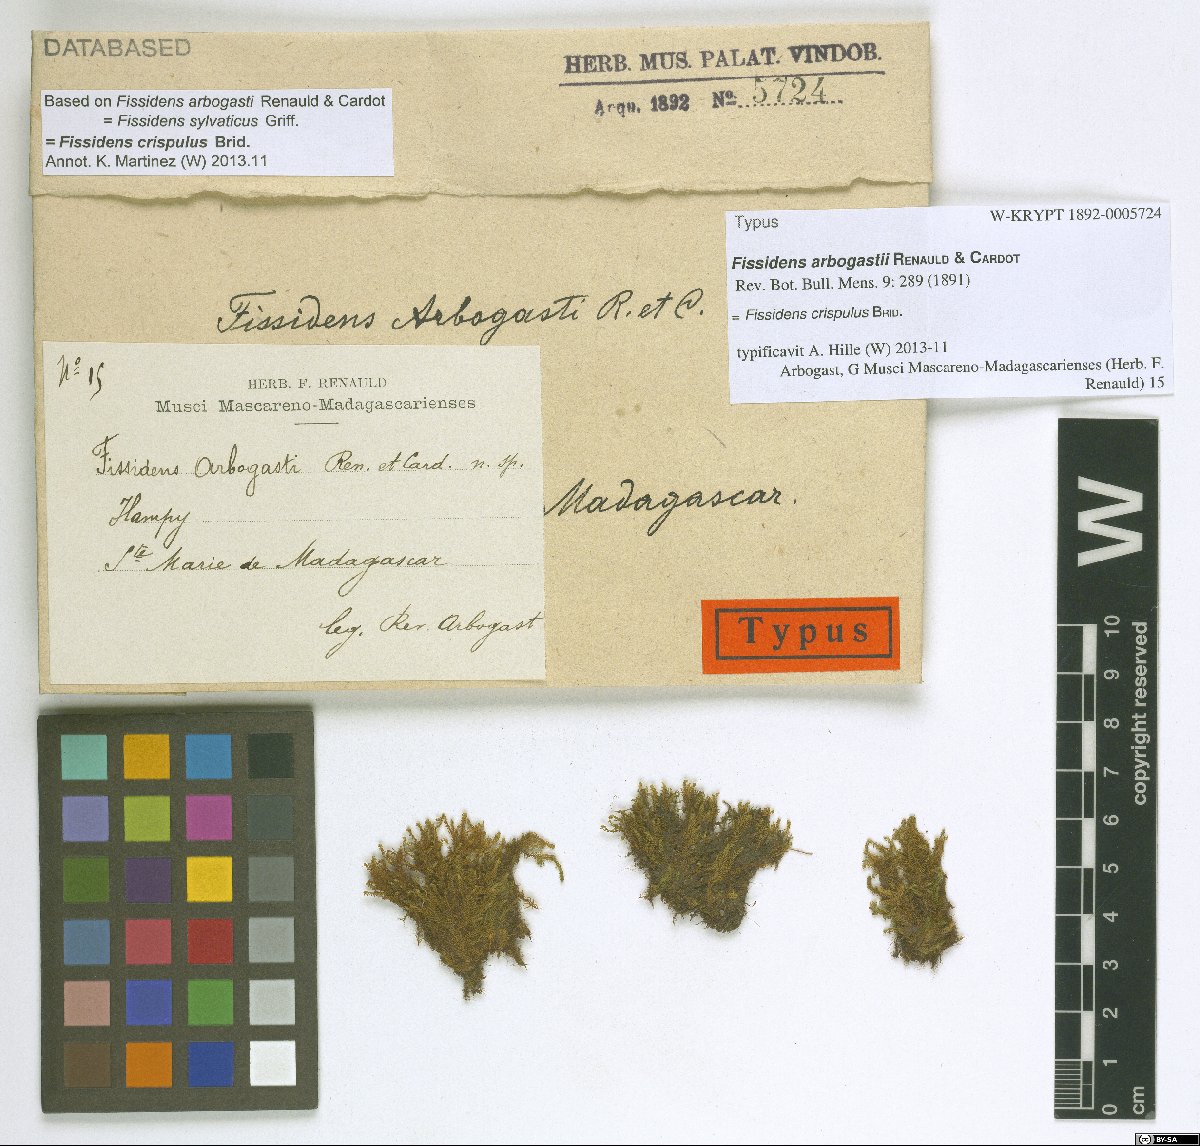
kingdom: Plantae
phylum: Bryophyta
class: Bryopsida
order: Dicranales
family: Fissidentaceae
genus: Fissidens
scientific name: Fissidens crispulus
